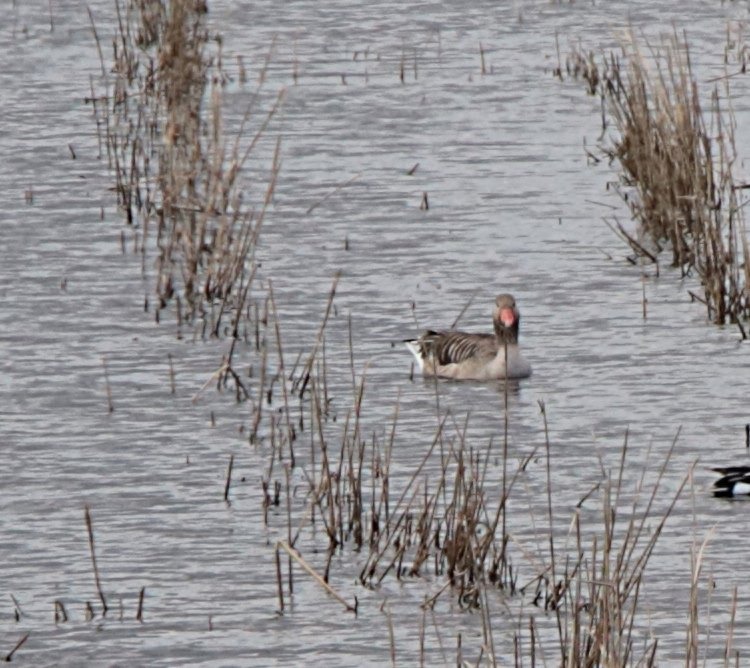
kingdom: Animalia
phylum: Chordata
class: Aves
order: Anseriformes
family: Anatidae
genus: Anser
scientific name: Anser anser
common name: Grågås
